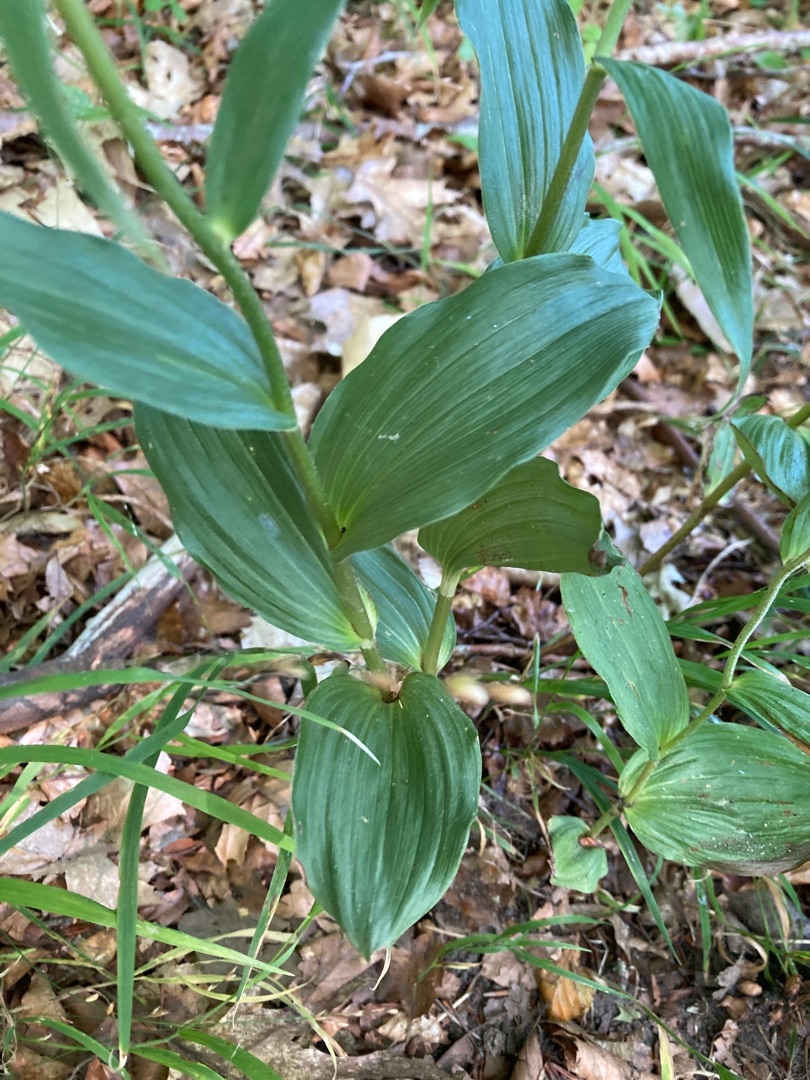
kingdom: Plantae
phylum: Tracheophyta
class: Liliopsida
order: Asparagales
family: Orchidaceae
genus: Epipactis
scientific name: Epipactis helleborine
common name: Skov-hullæbe
